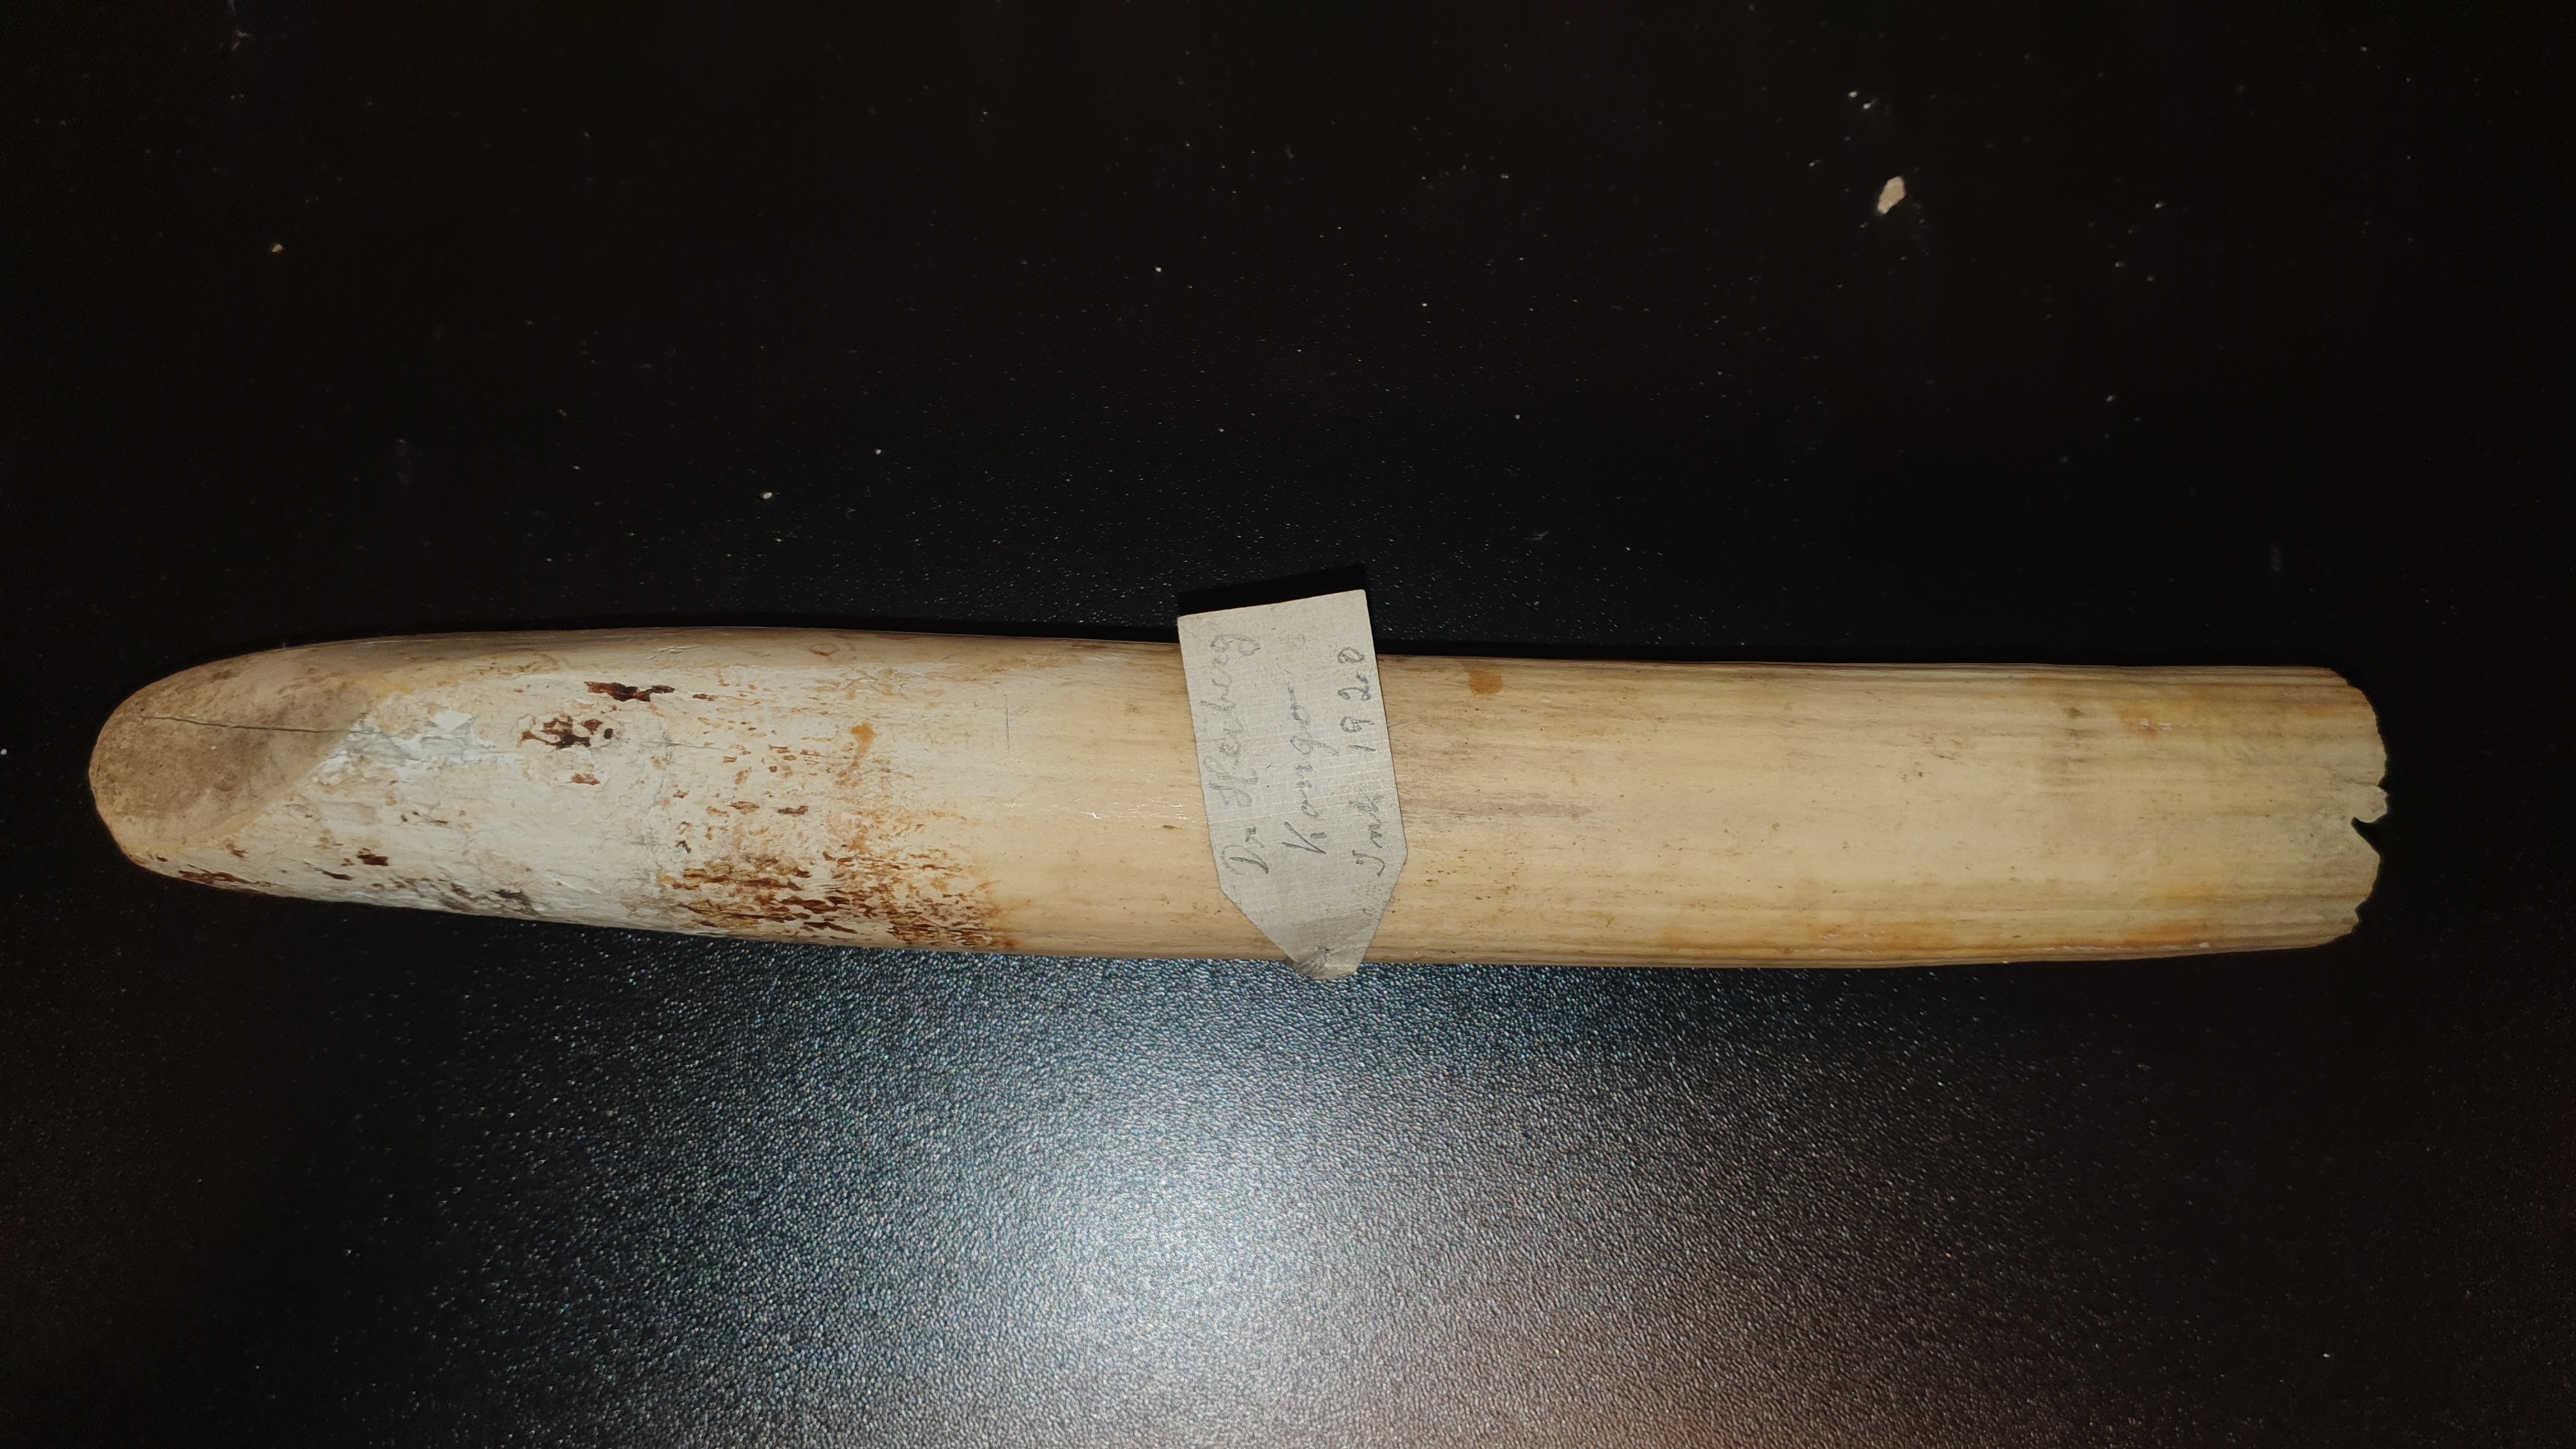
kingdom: Animalia
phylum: Chordata
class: Mammalia
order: Artiodactyla
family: Hippopotamidae
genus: Hippopotamus
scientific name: Hippopotamus amphibius
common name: Common hippopotamus
